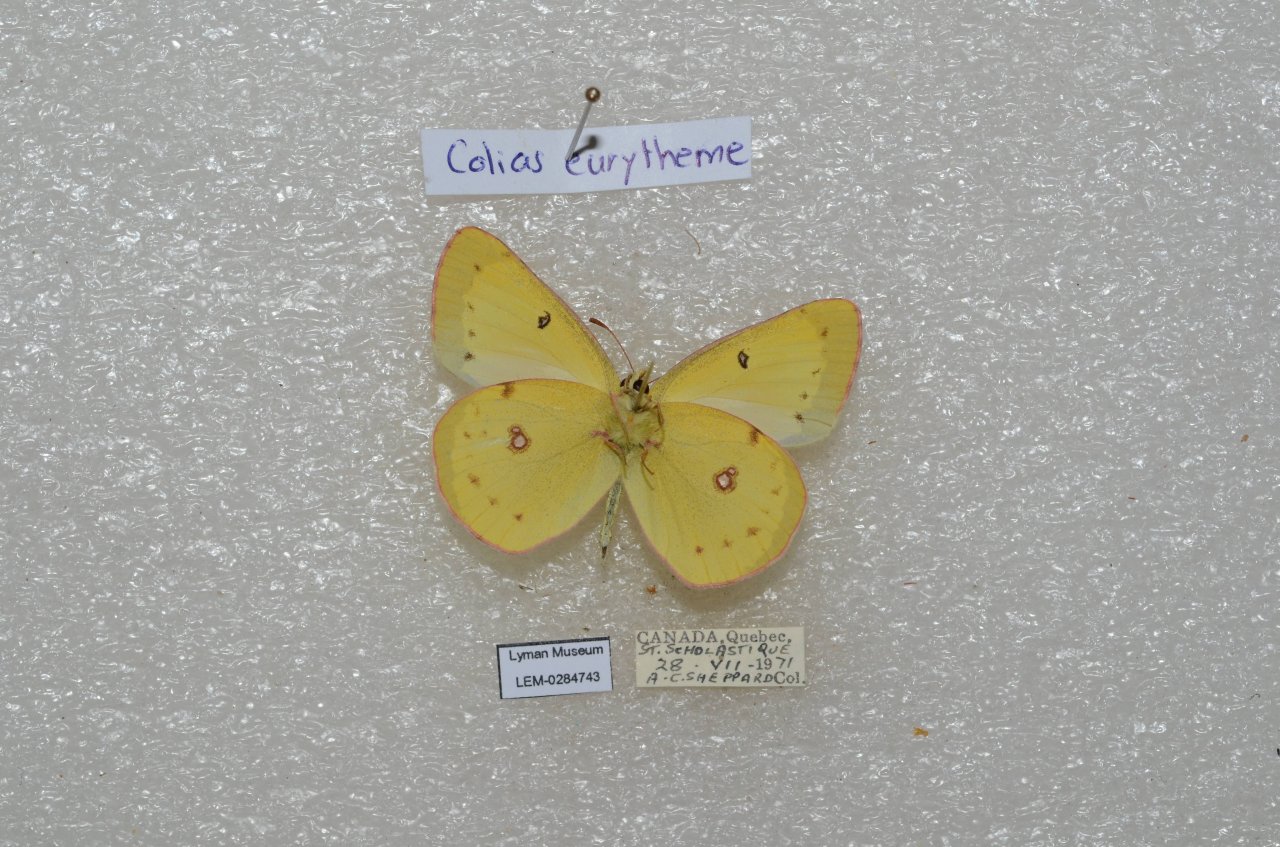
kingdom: Animalia
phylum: Arthropoda
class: Insecta
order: Lepidoptera
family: Pieridae
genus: Colias
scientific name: Colias eurytheme
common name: Orange Sulphur
